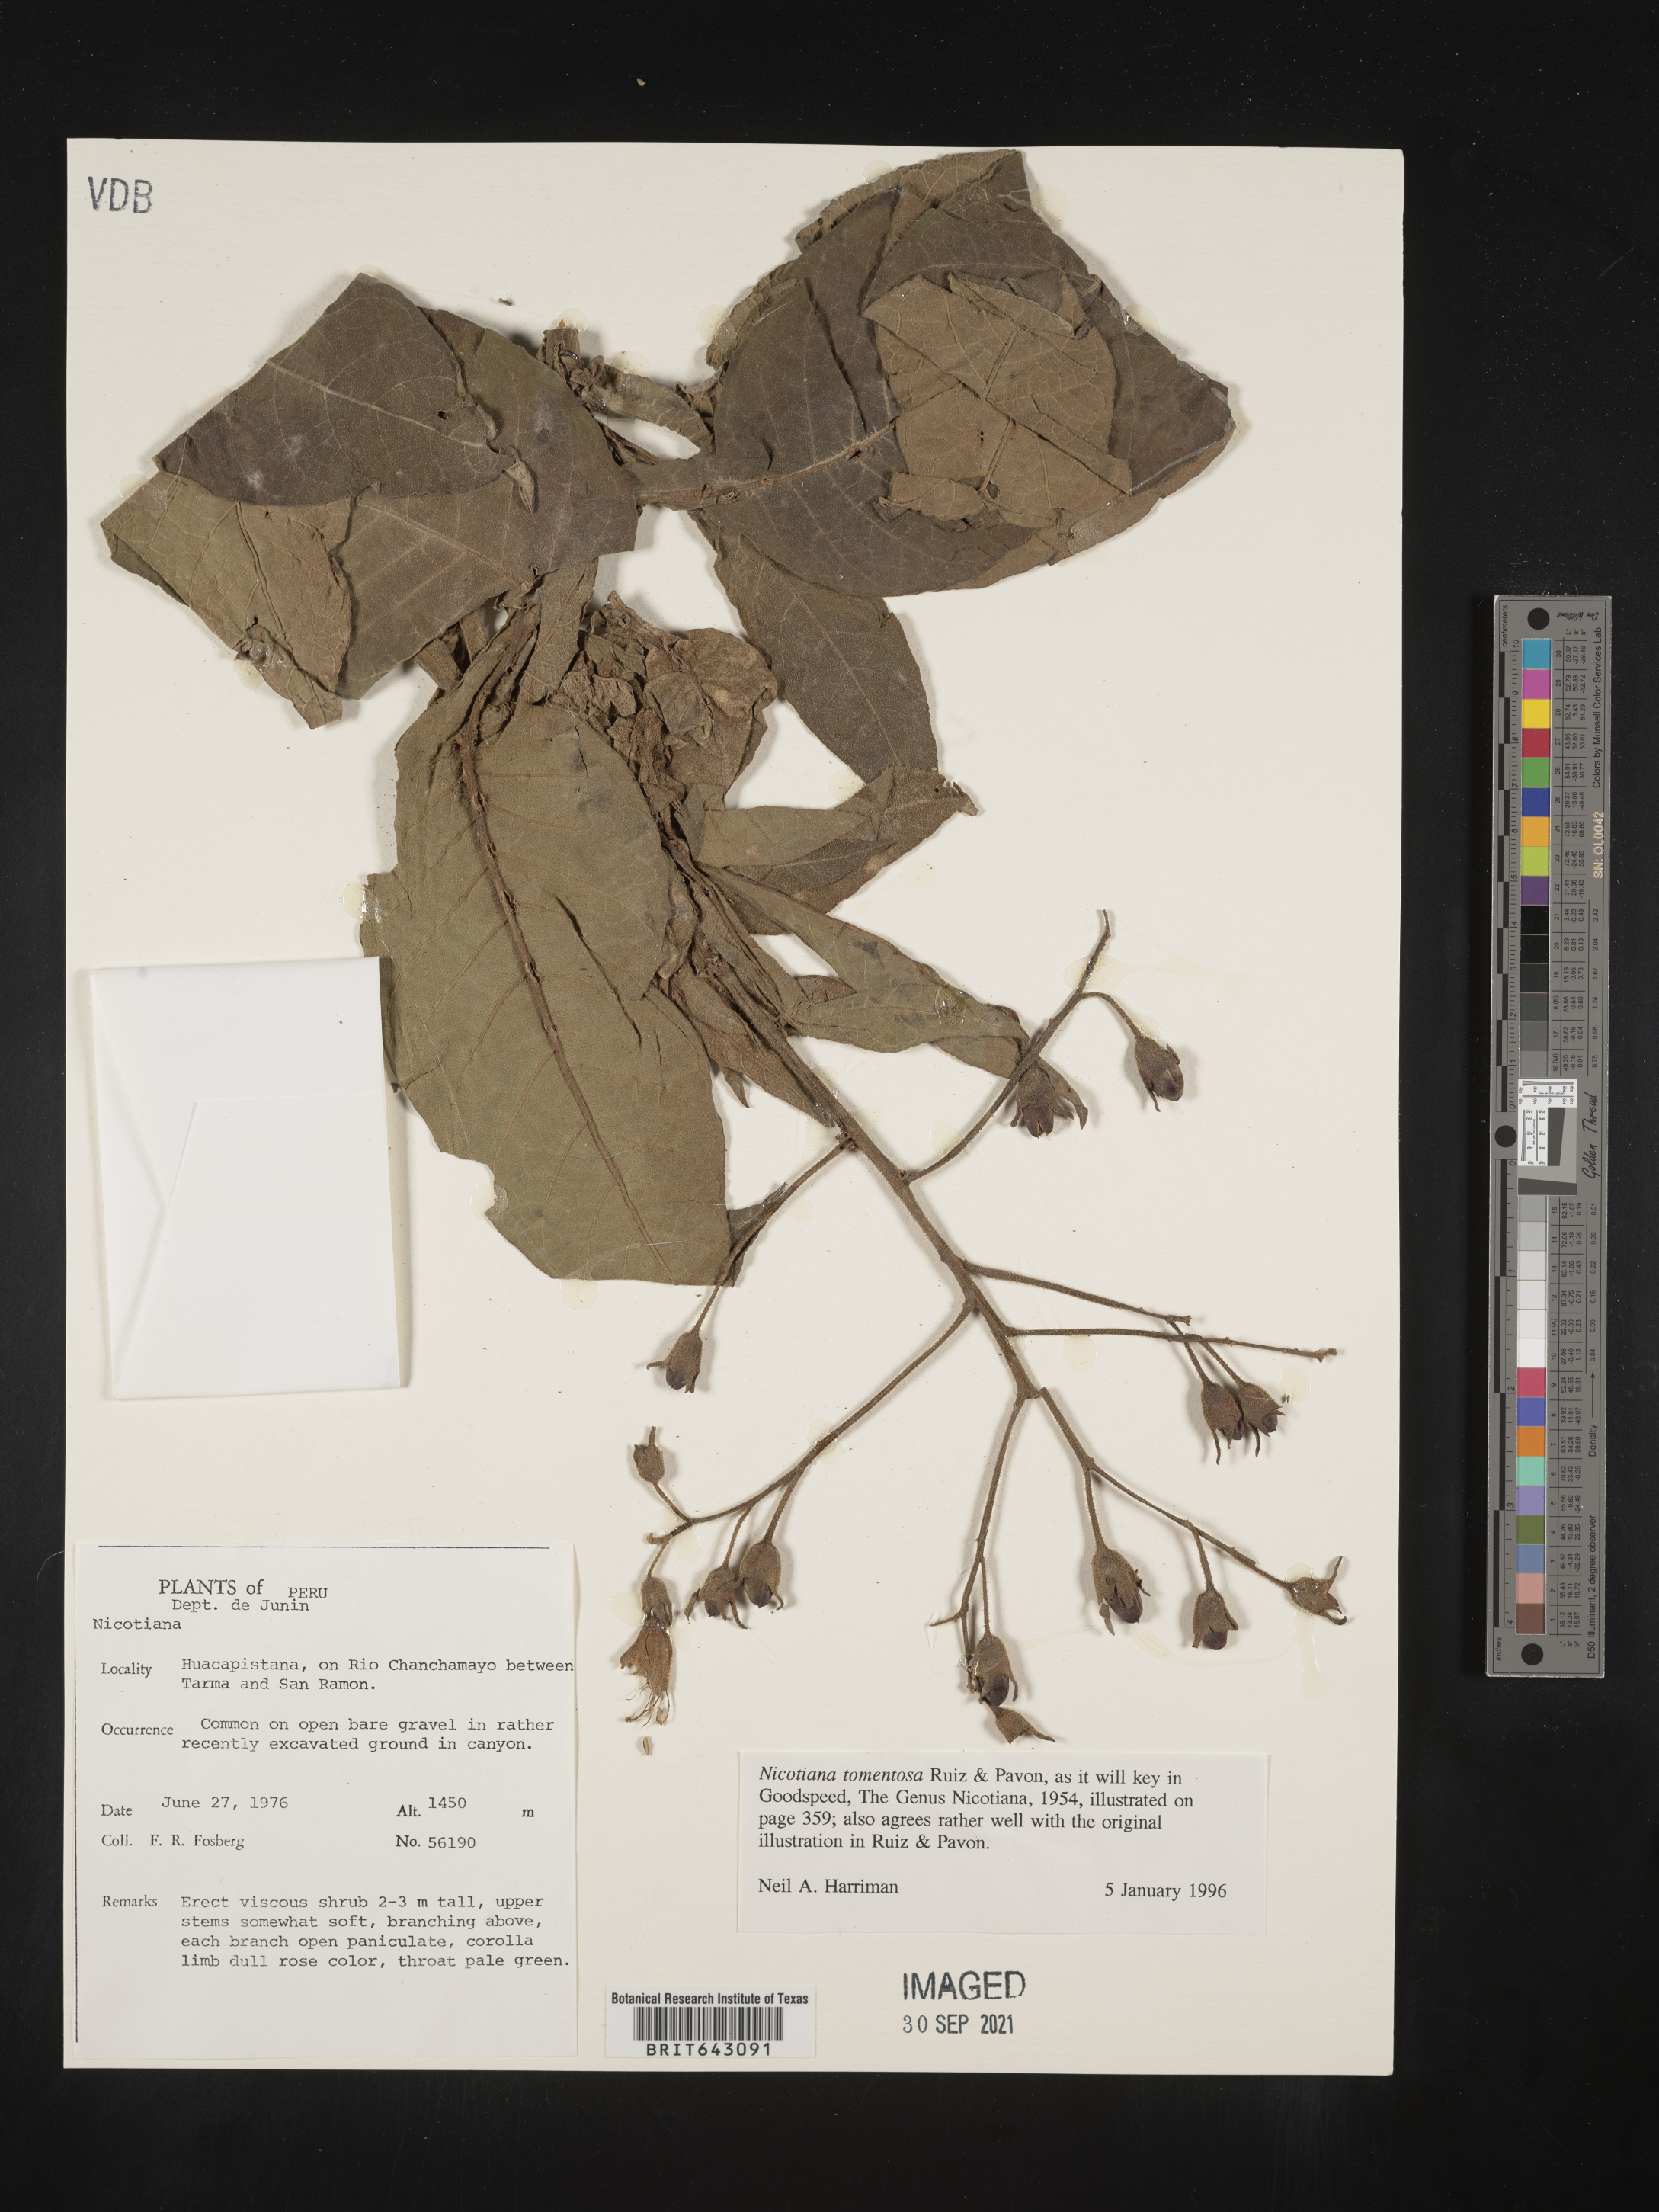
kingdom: Plantae
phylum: Tracheophyta
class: Magnoliopsida
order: Solanales
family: Solanaceae
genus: Nicotiana
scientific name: Nicotiana
